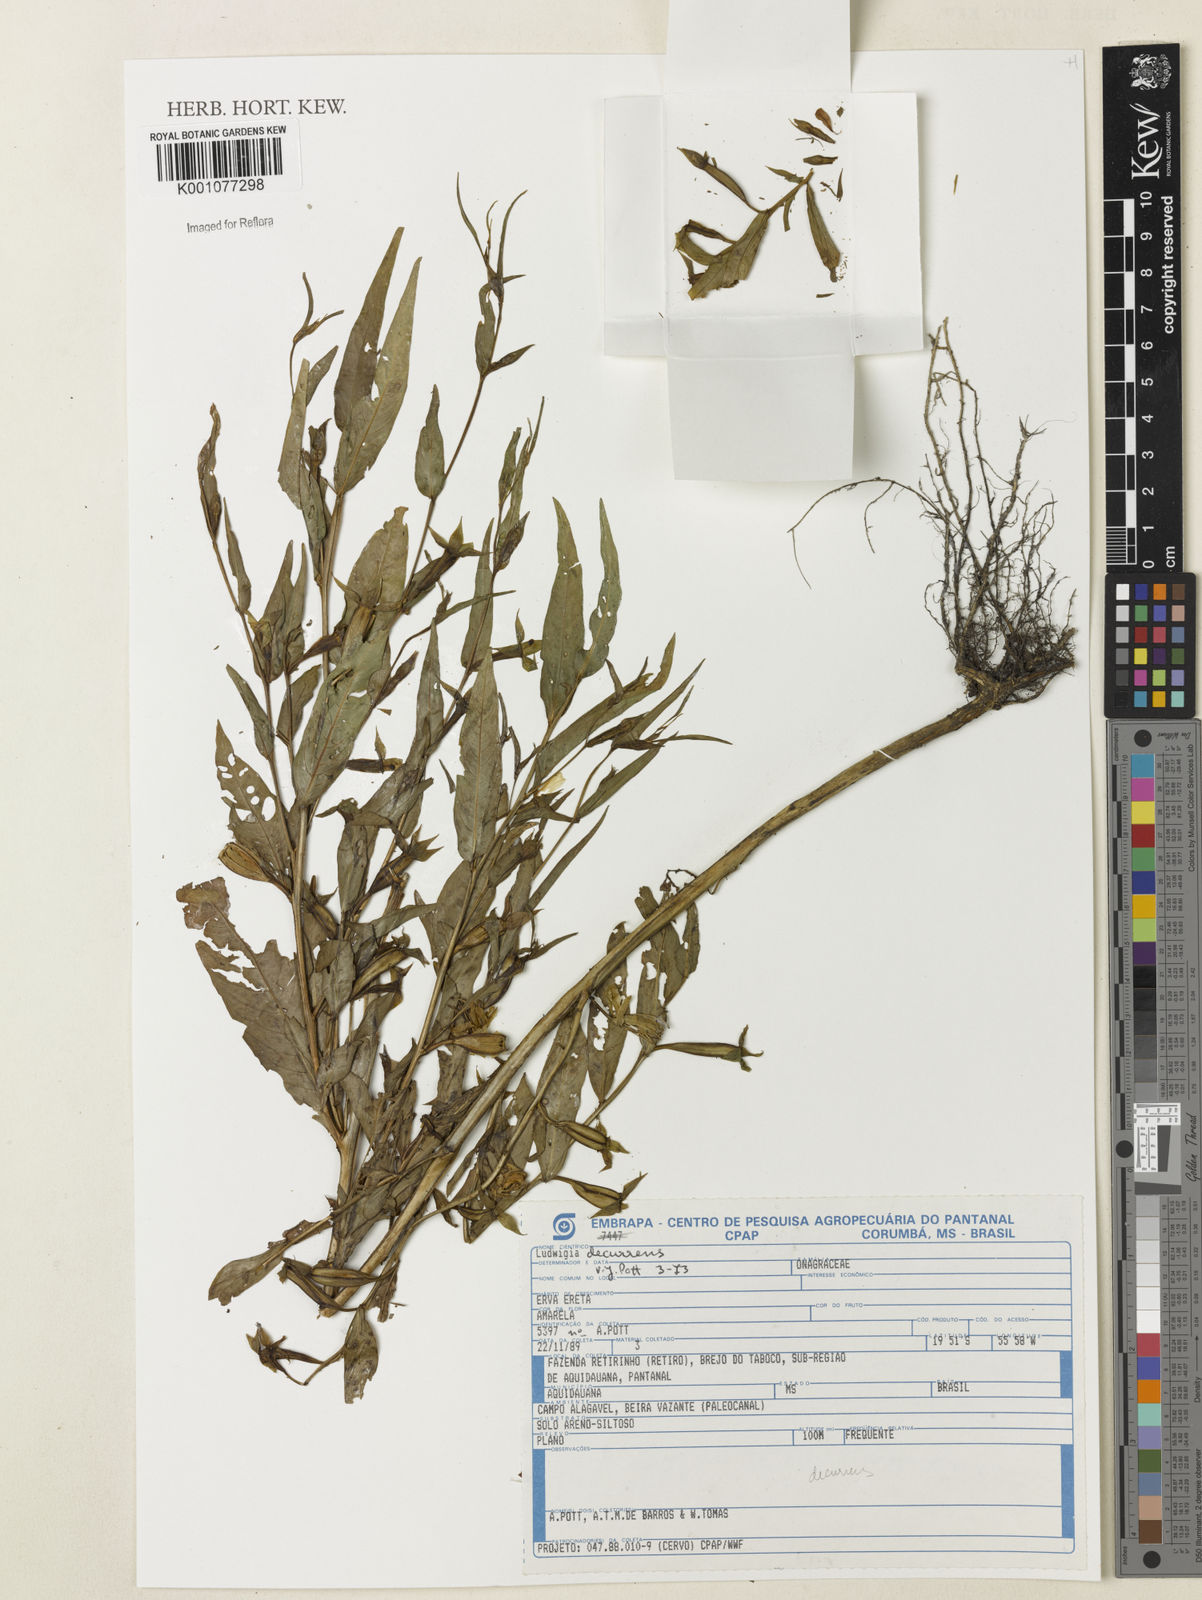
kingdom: Plantae
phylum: Tracheophyta
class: Magnoliopsida
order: Myrtales
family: Onagraceae
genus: Ludwigia
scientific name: Ludwigia decurrens
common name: Winged water-primrose
